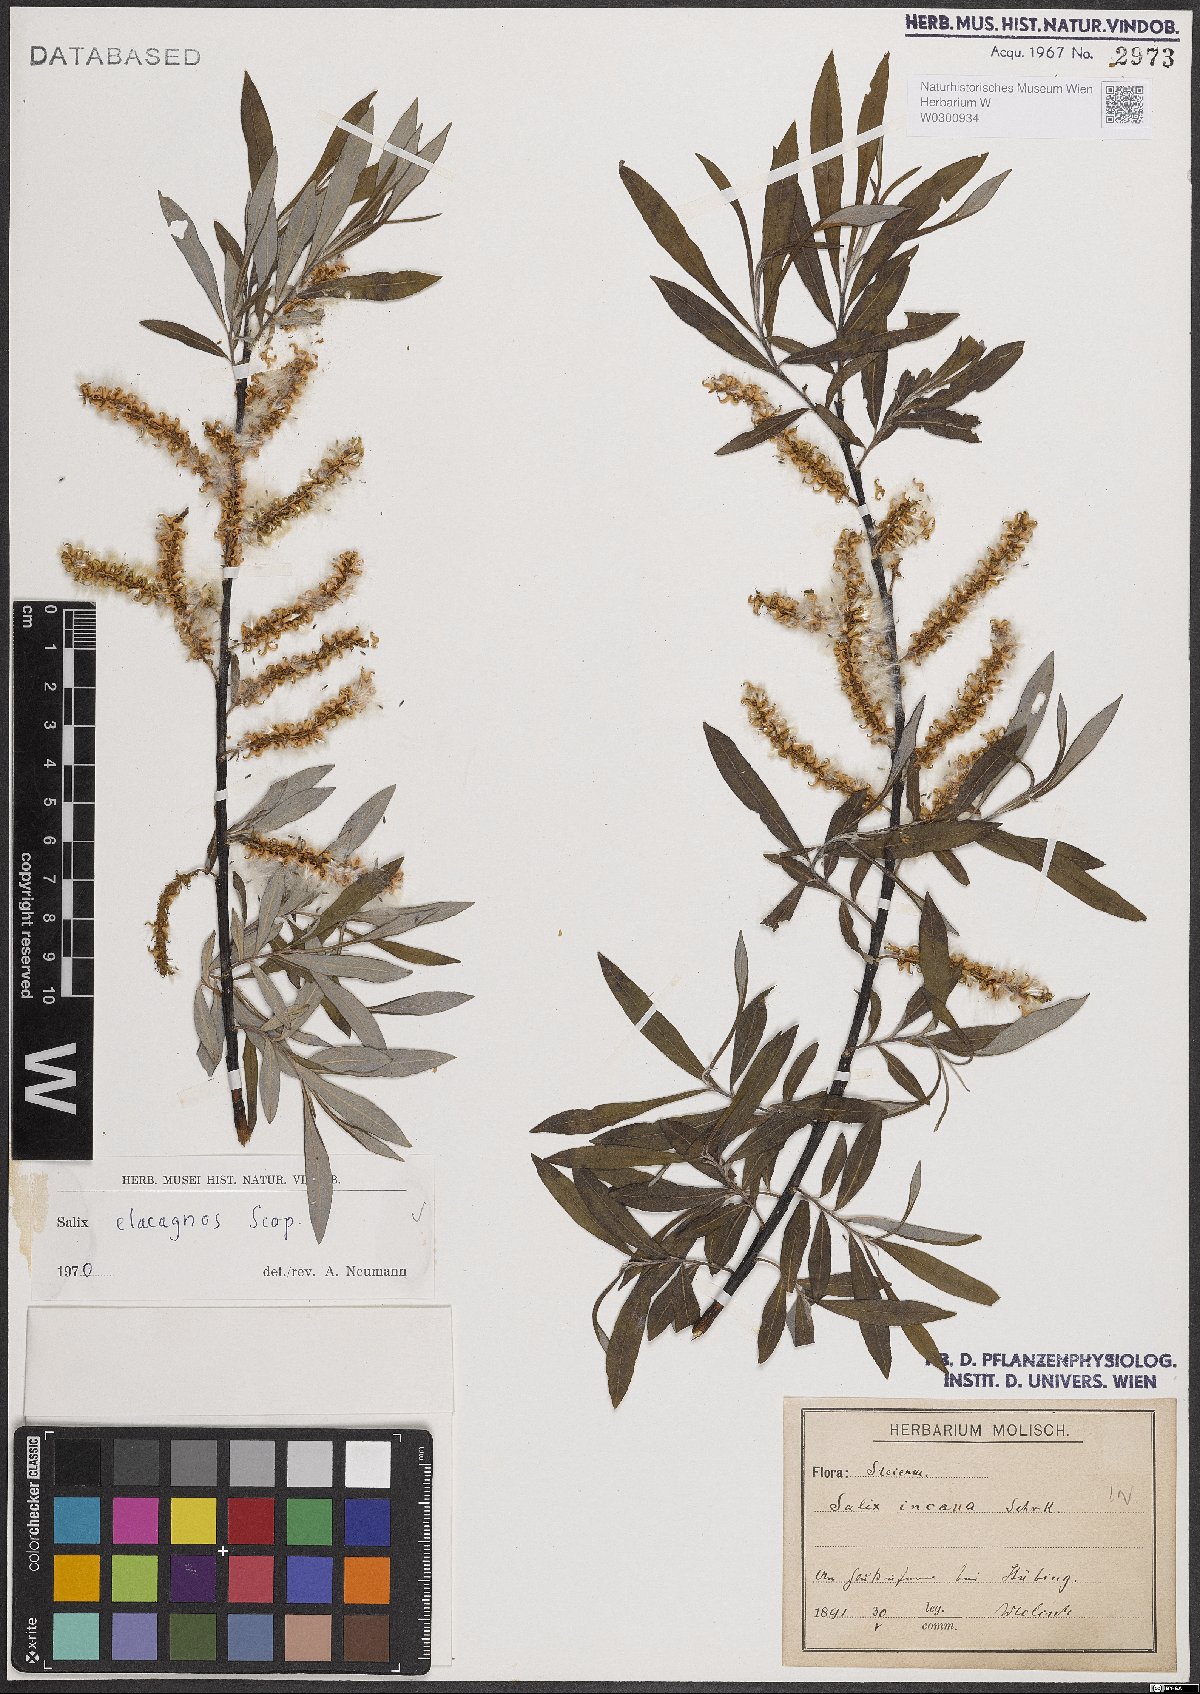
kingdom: Plantae
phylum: Tracheophyta
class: Magnoliopsida
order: Malpighiales
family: Salicaceae
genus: Salix
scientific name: Salix eleagnos
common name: Elaeagnus willow
